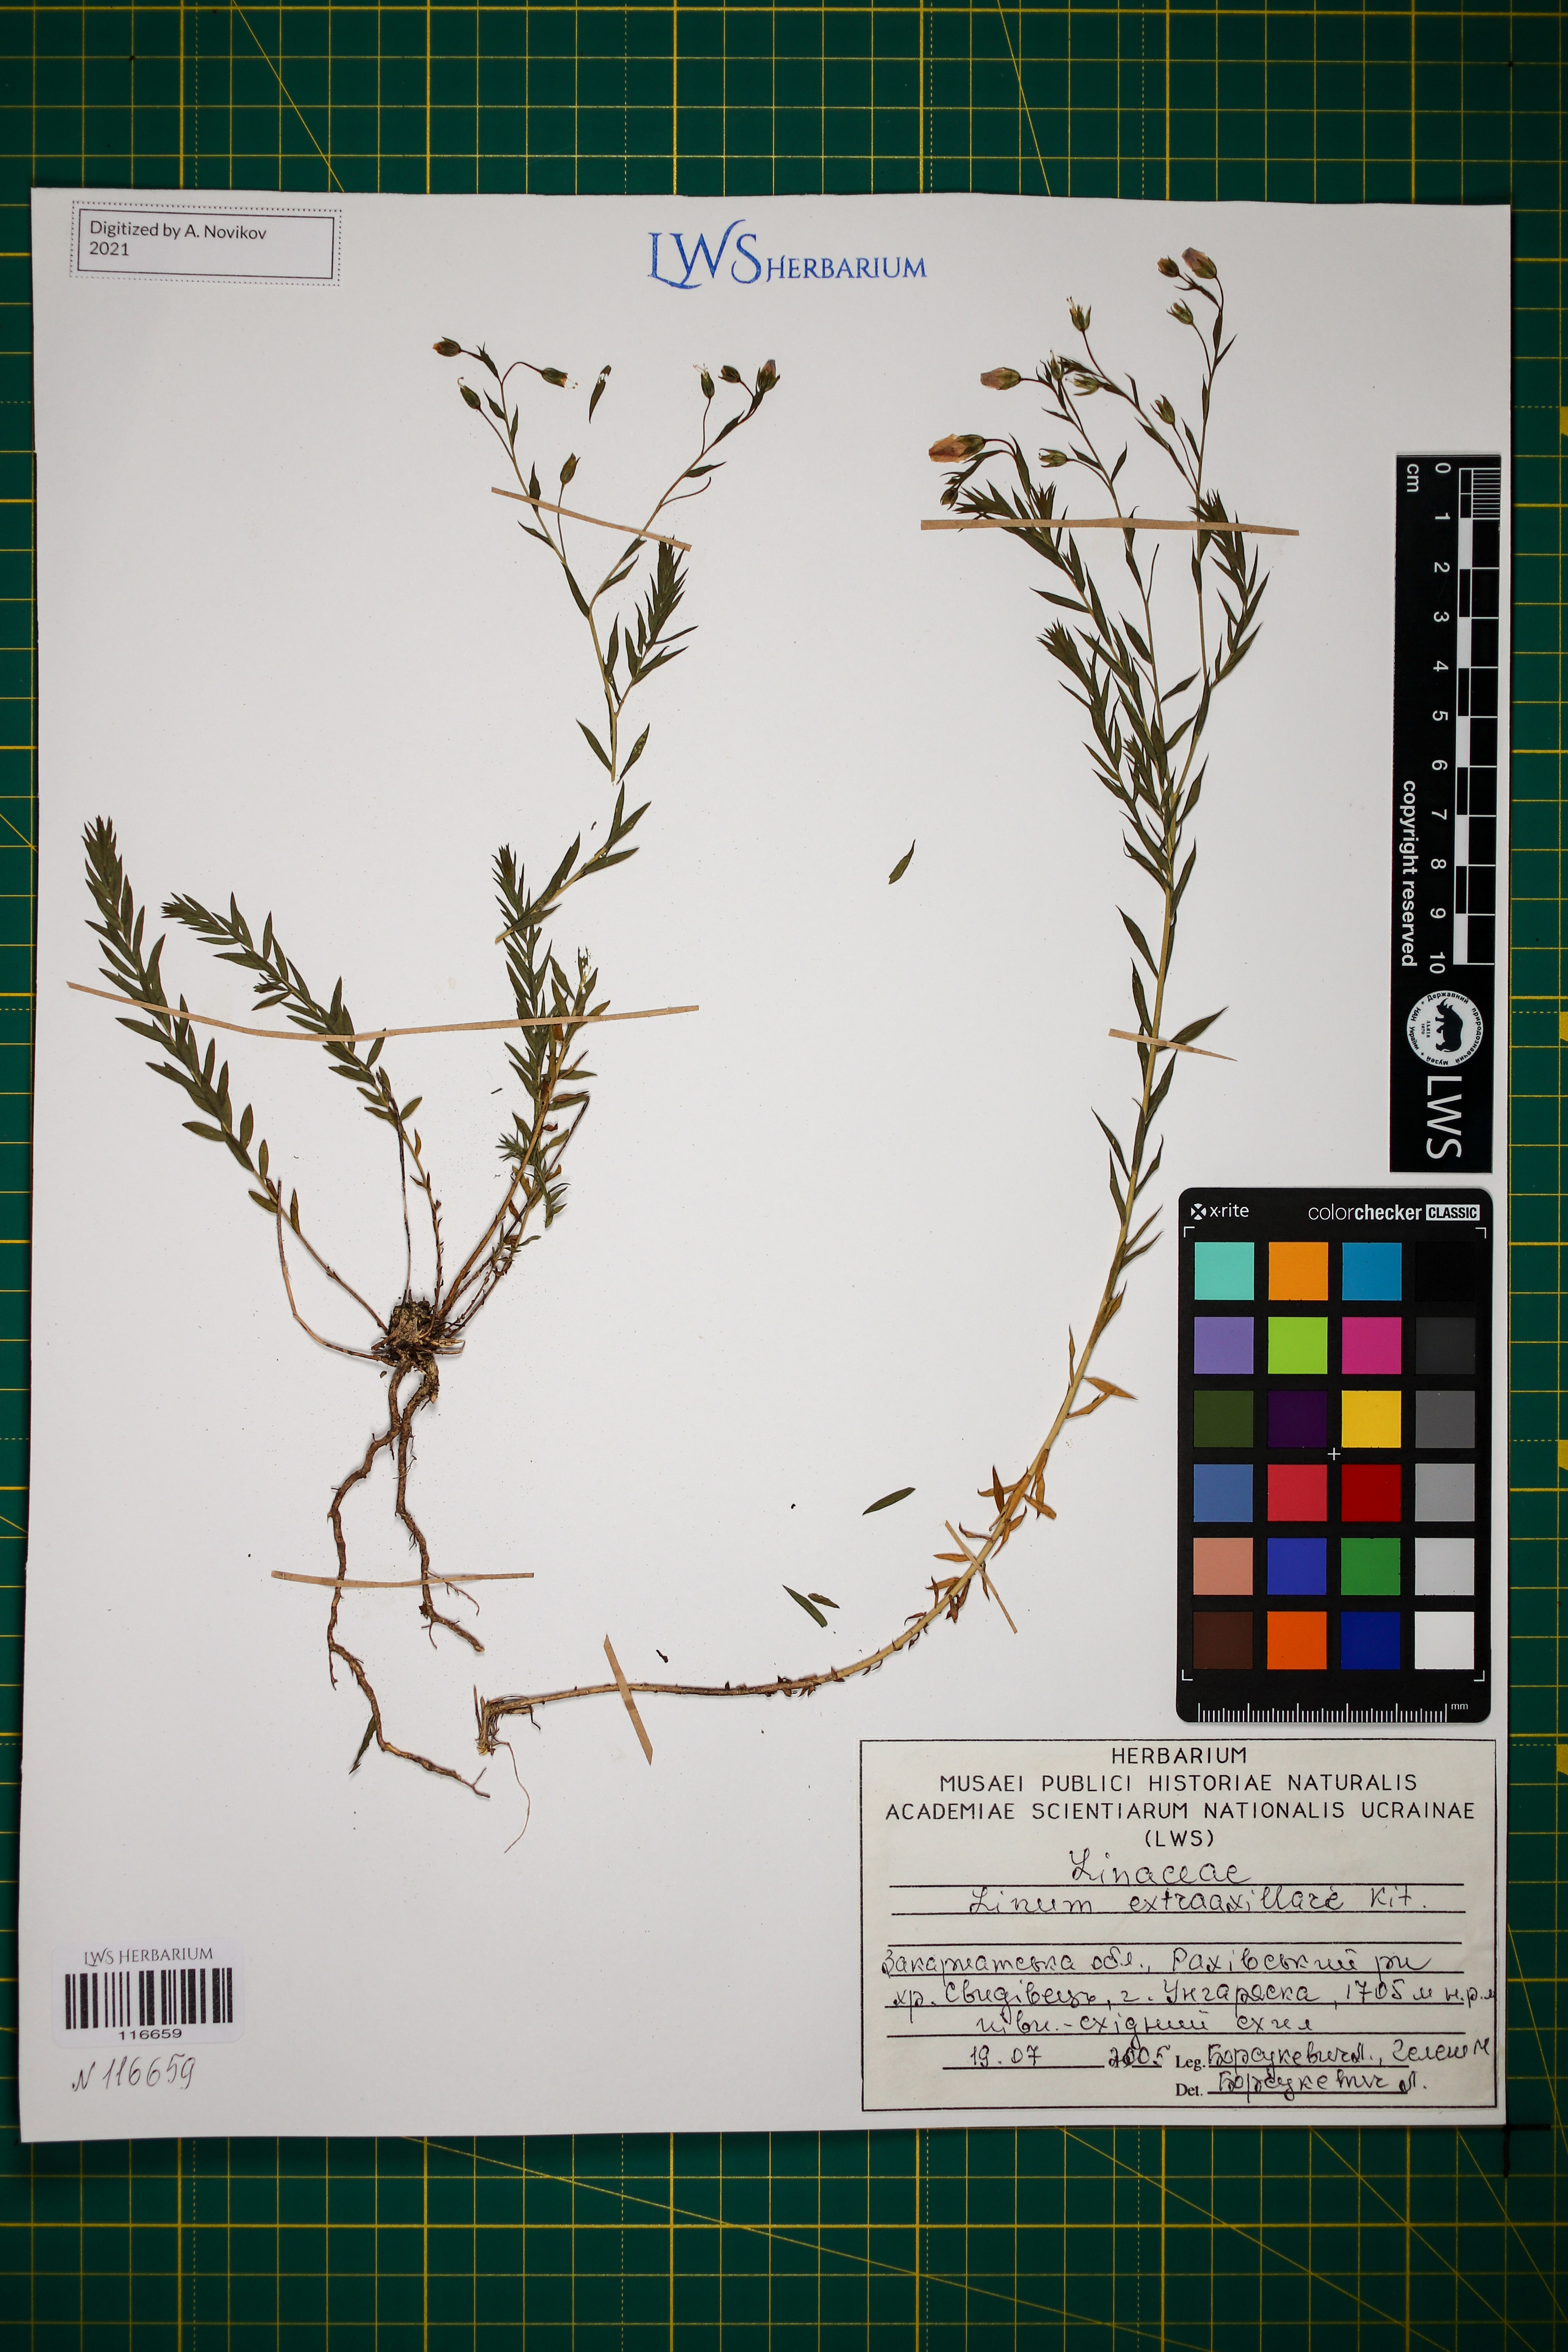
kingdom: Plantae
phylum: Tracheophyta
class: Magnoliopsida
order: Malpighiales
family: Linaceae
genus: Linum
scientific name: Linum perenne
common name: Blue flax
